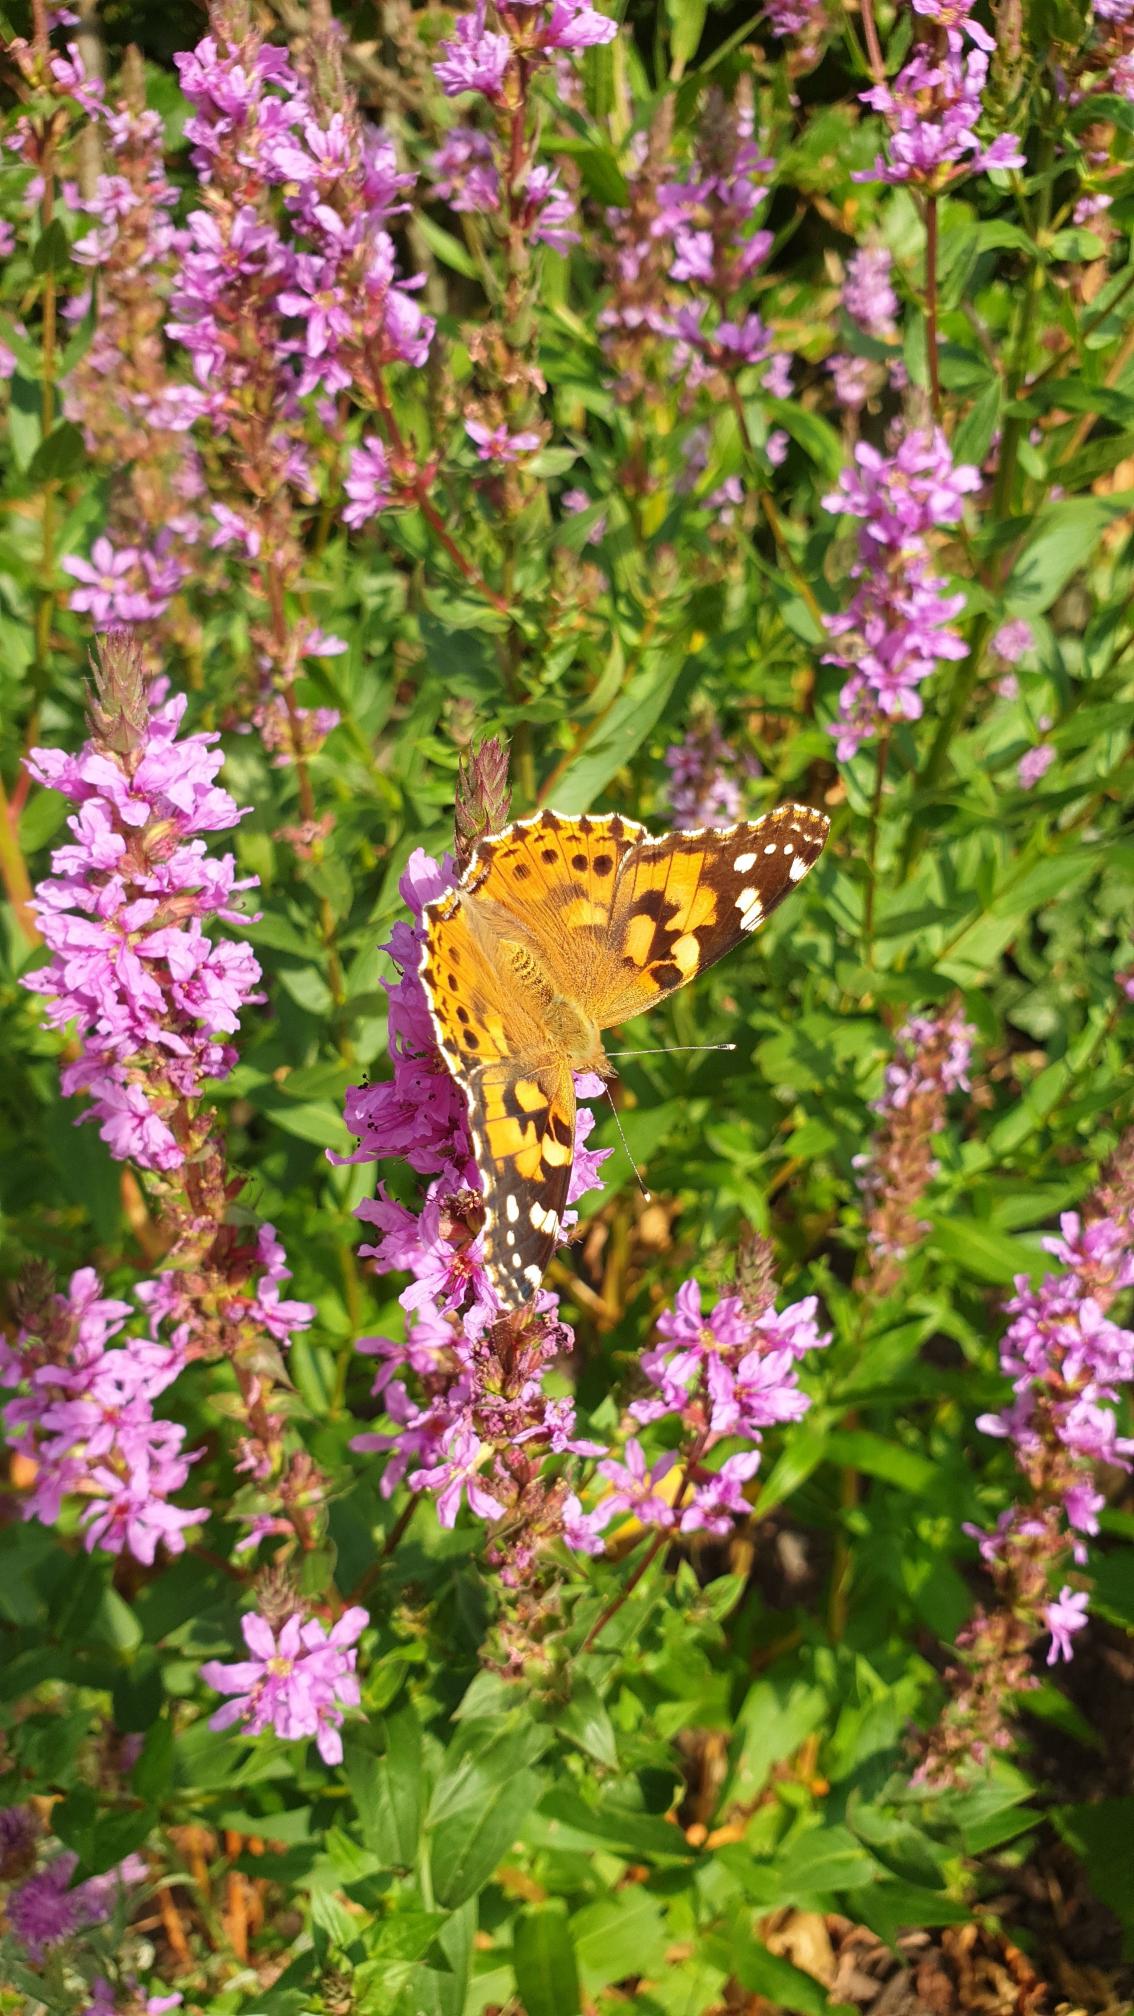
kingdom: Animalia
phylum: Arthropoda
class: Insecta
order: Lepidoptera
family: Nymphalidae
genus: Vanessa
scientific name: Vanessa cardui
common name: Tidselsommerfugl
